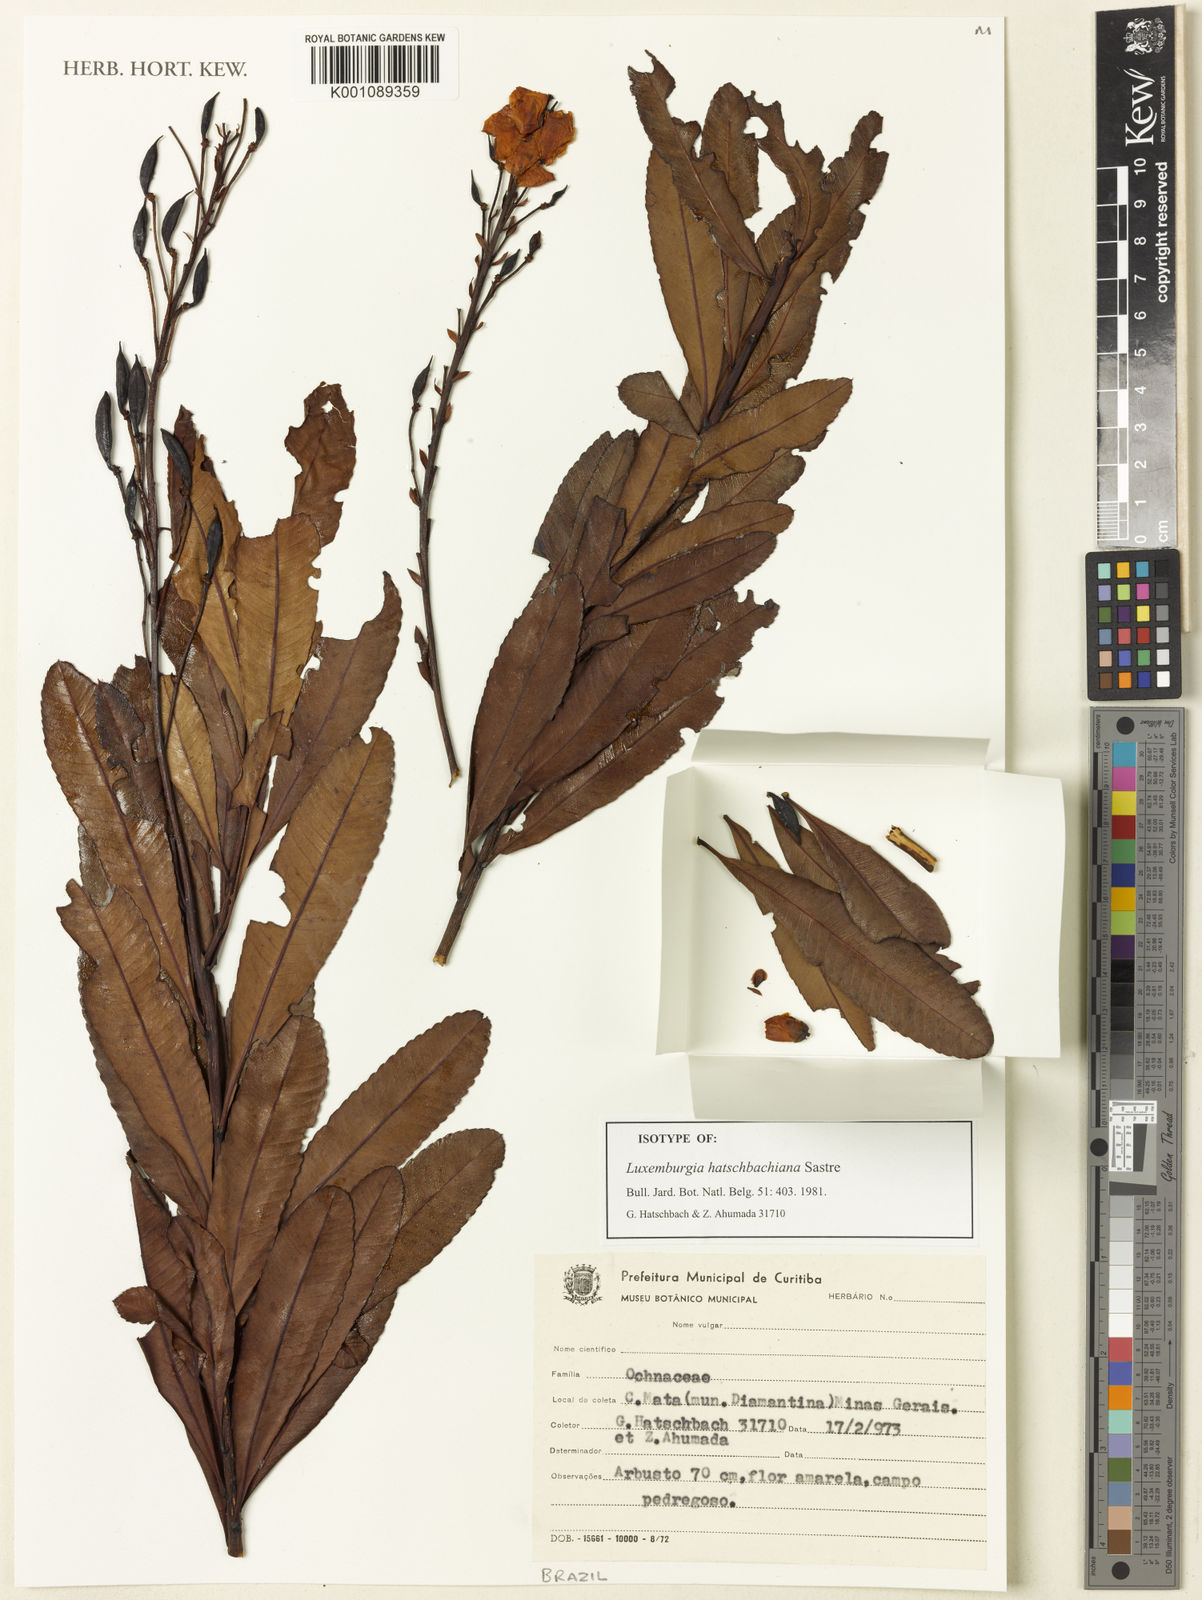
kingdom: Plantae
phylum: Tracheophyta
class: Magnoliopsida
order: Malpighiales
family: Ochnaceae
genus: Luxemburgia
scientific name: Luxemburgia hatschbachiana
